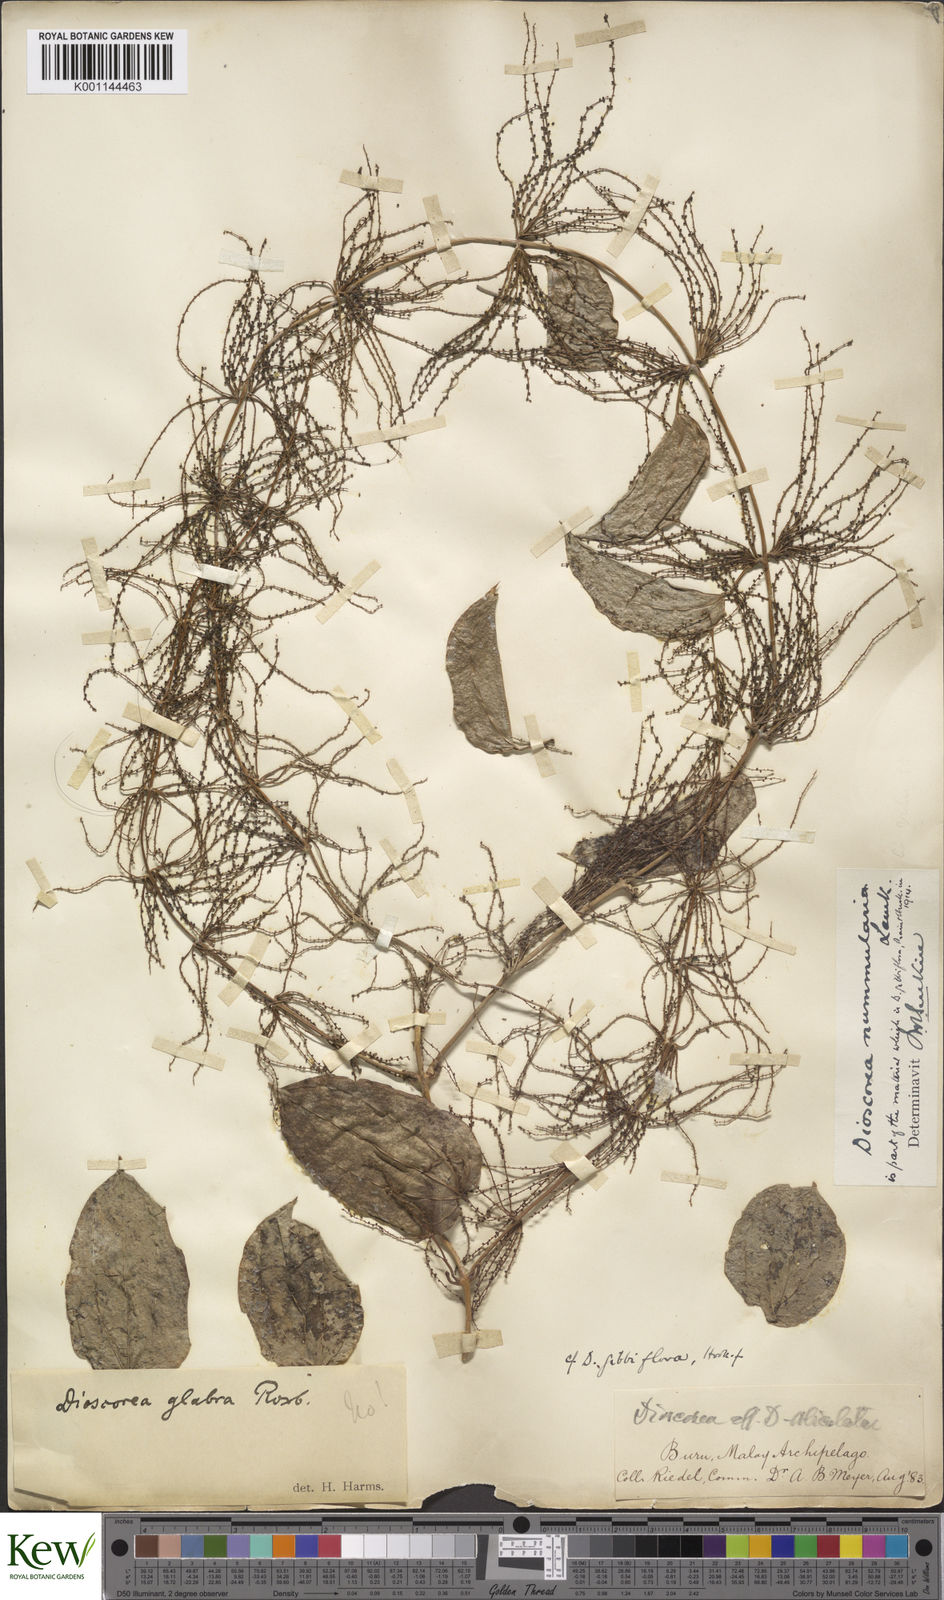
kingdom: Plantae
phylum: Tracheophyta
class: Liliopsida
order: Dioscoreales
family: Dioscoreaceae
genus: Dioscorea
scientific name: Dioscorea nummularia
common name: Pacific yam
